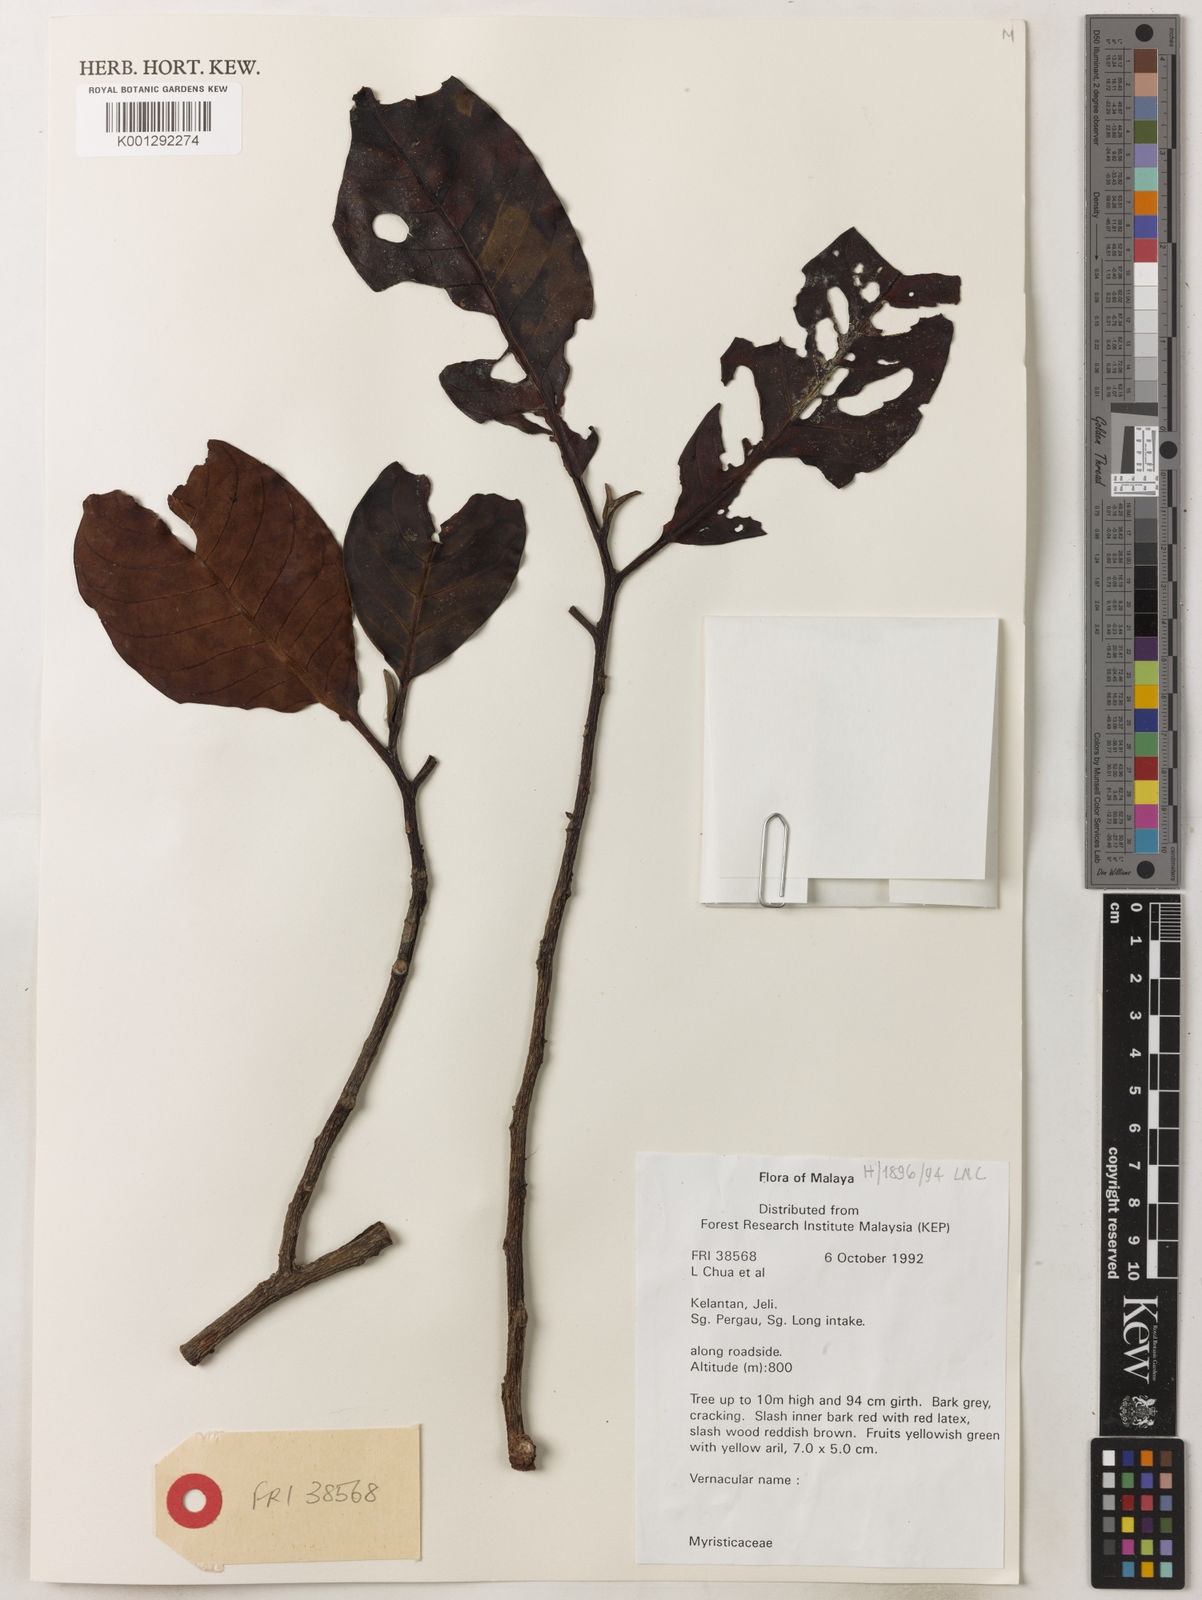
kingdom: Plantae
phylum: Tracheophyta
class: Magnoliopsida
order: Magnoliales
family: Myristicaceae
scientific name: Myristicaceae
